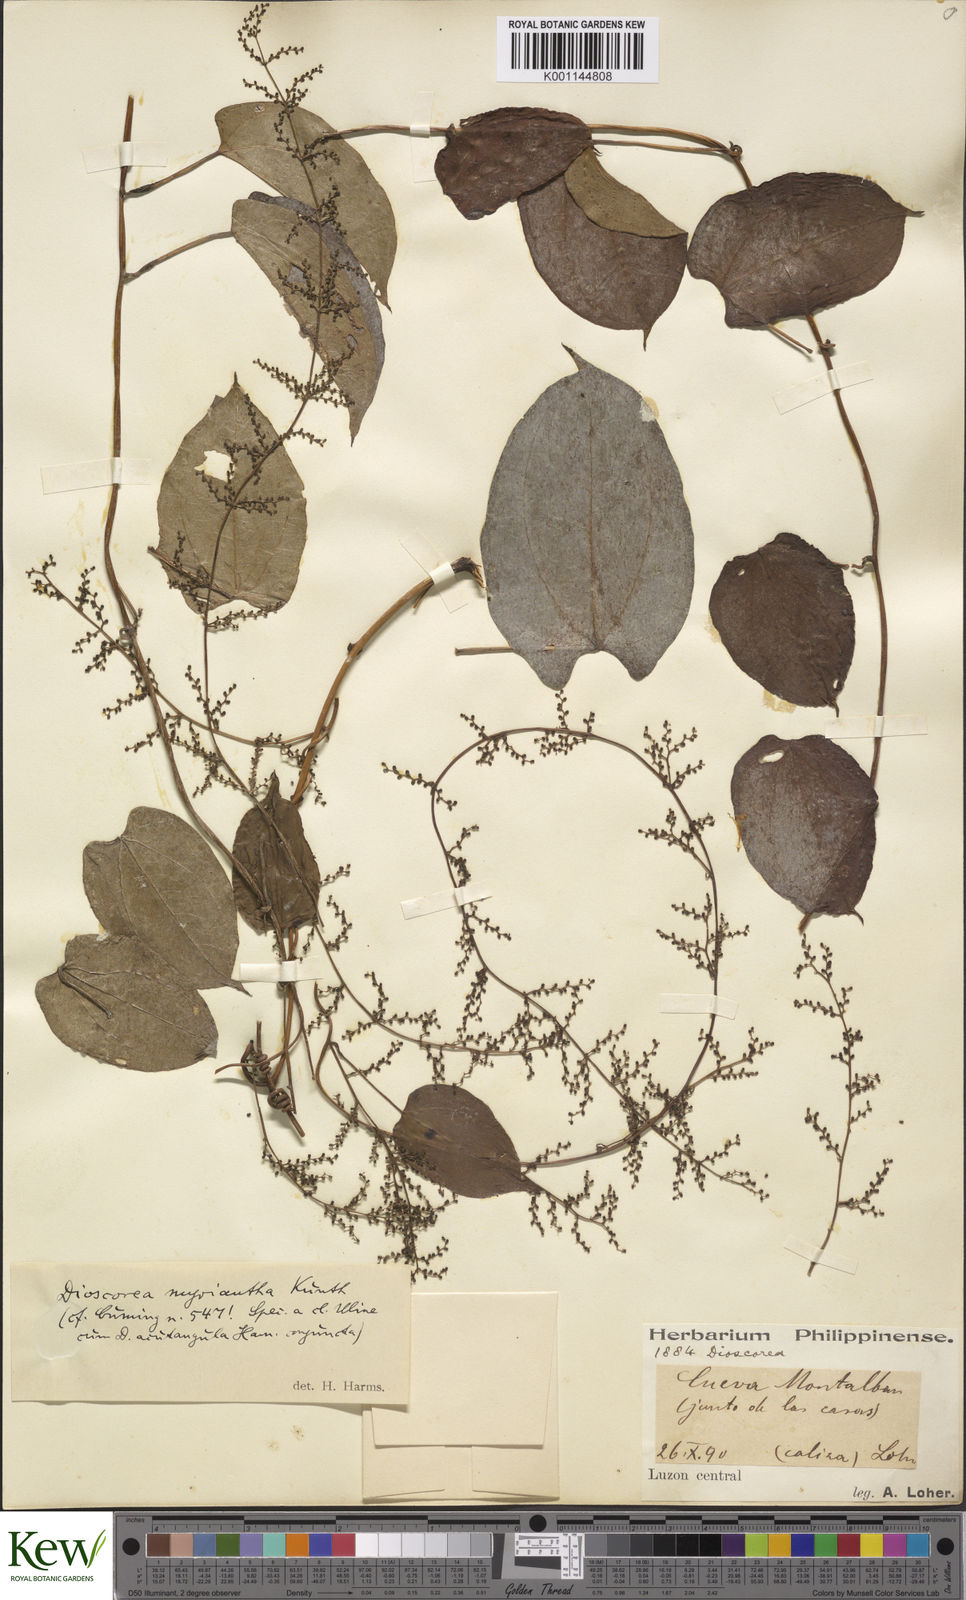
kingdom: Plantae
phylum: Tracheophyta
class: Liliopsida
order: Dioscoreales
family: Dioscoreaceae
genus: Dioscorea
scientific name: Dioscorea filiformis
